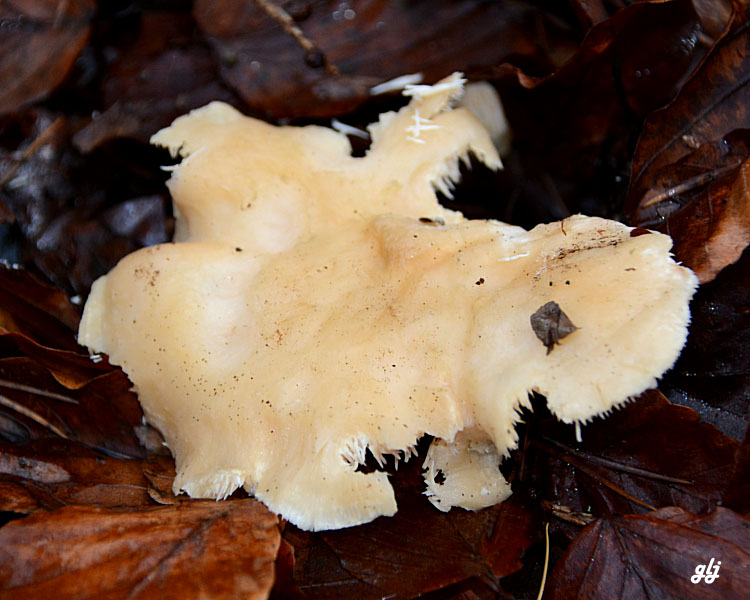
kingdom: Fungi
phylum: Basidiomycota
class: Agaricomycetes
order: Cantharellales
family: Hydnaceae
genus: Hydnum
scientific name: Hydnum
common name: pigsvamp
